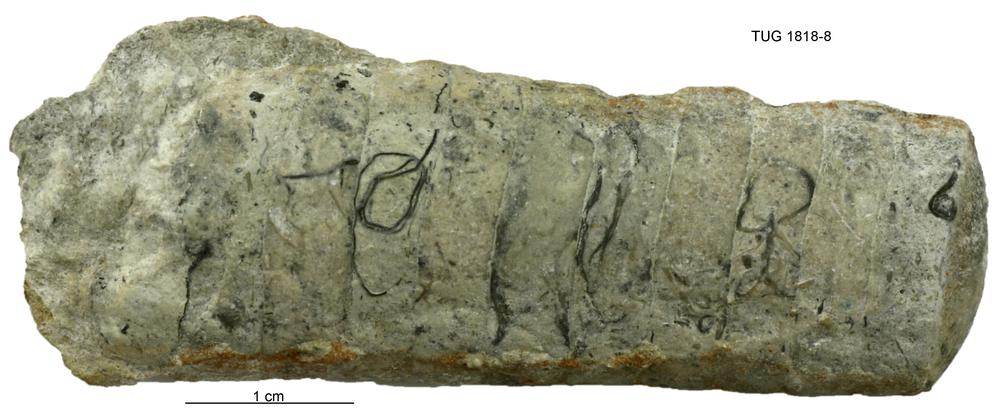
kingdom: Animalia
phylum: Mollusca
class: Cephalopoda
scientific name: Cephalopoda
